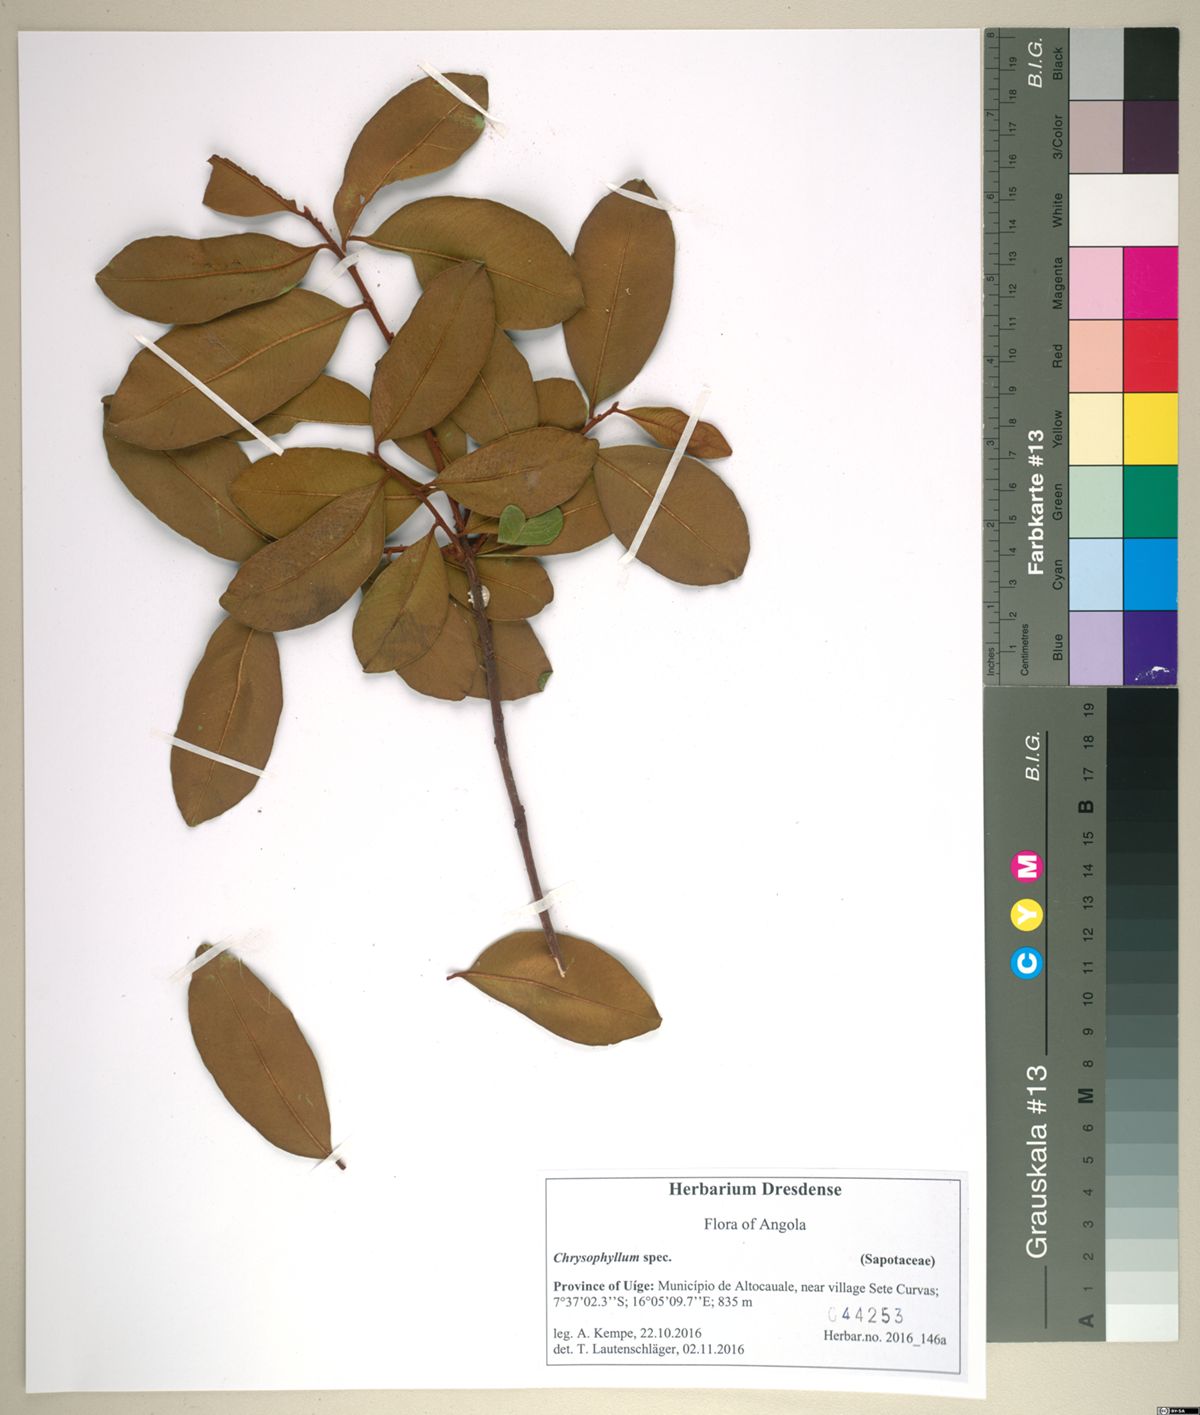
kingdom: Plantae
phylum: Tracheophyta
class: Magnoliopsida
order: Ericales
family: Sapotaceae
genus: Chrysophyllum
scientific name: Chrysophyllum
